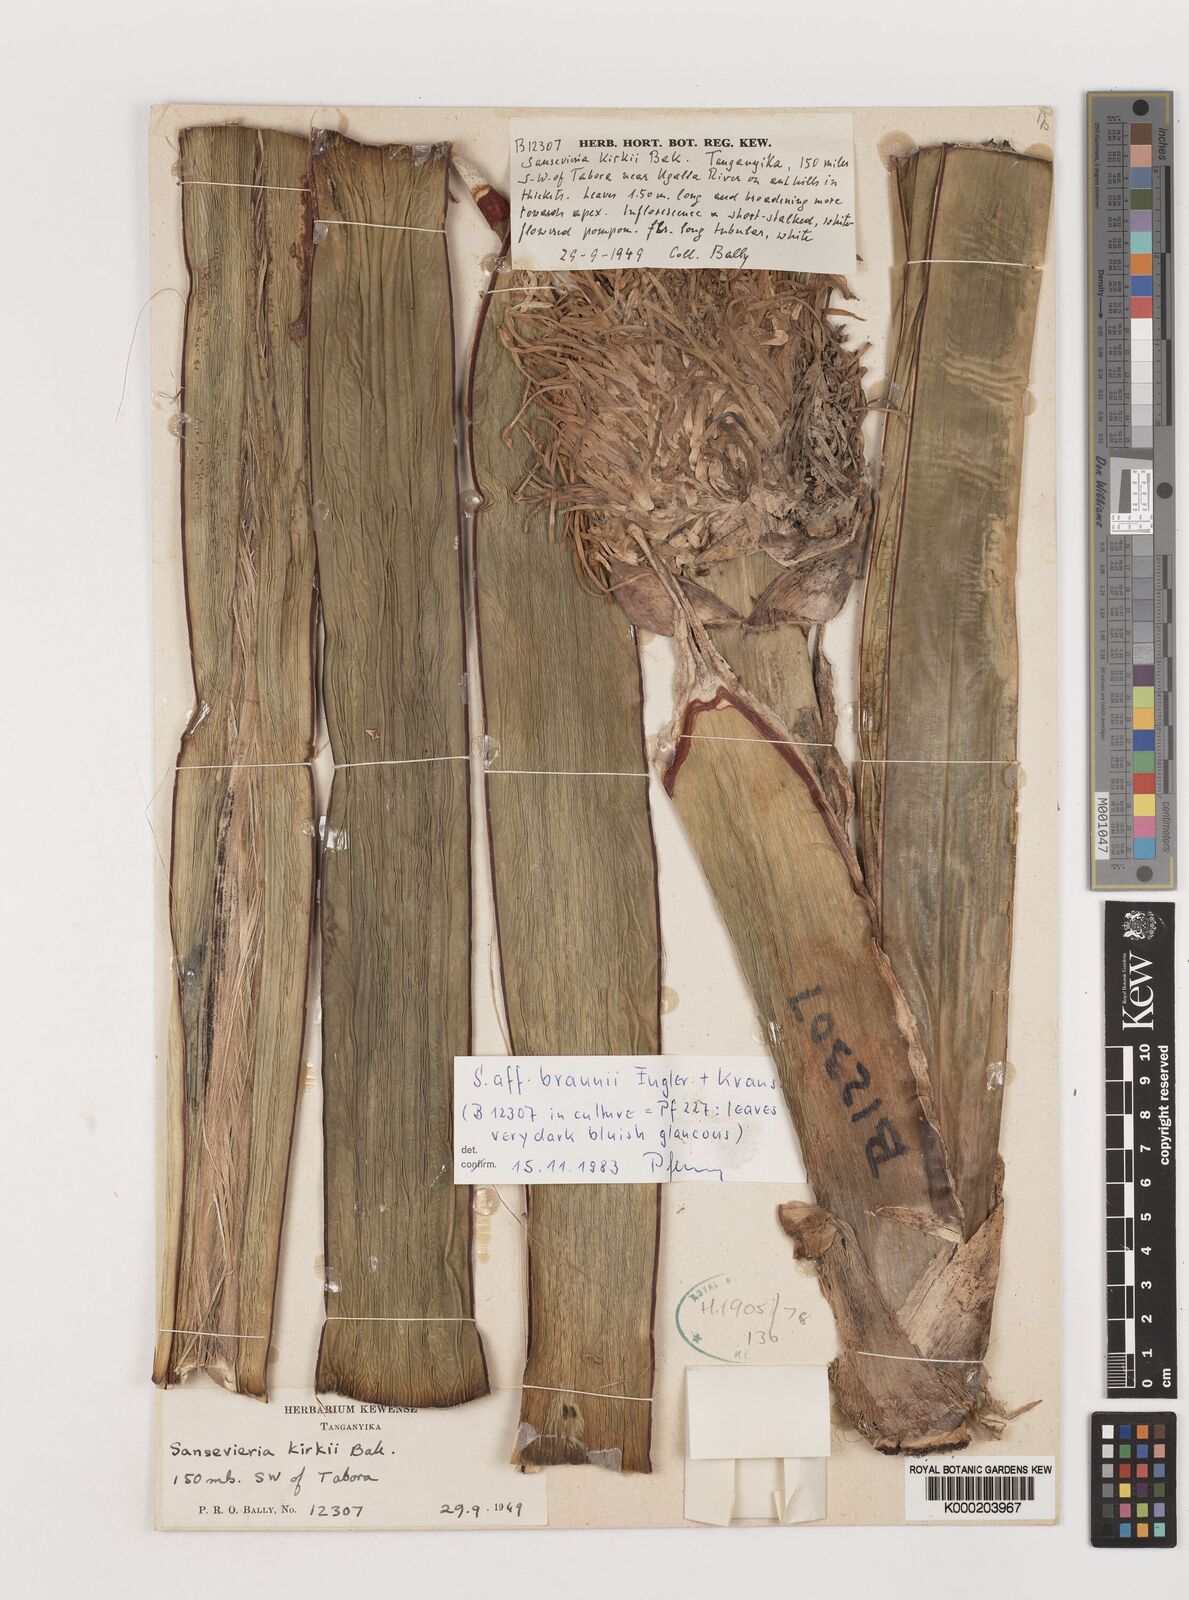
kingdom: Plantae
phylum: Tracheophyta
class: Liliopsida
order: Asparagales
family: Asparagaceae
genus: Dracaena
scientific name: Dracaena testudinea
